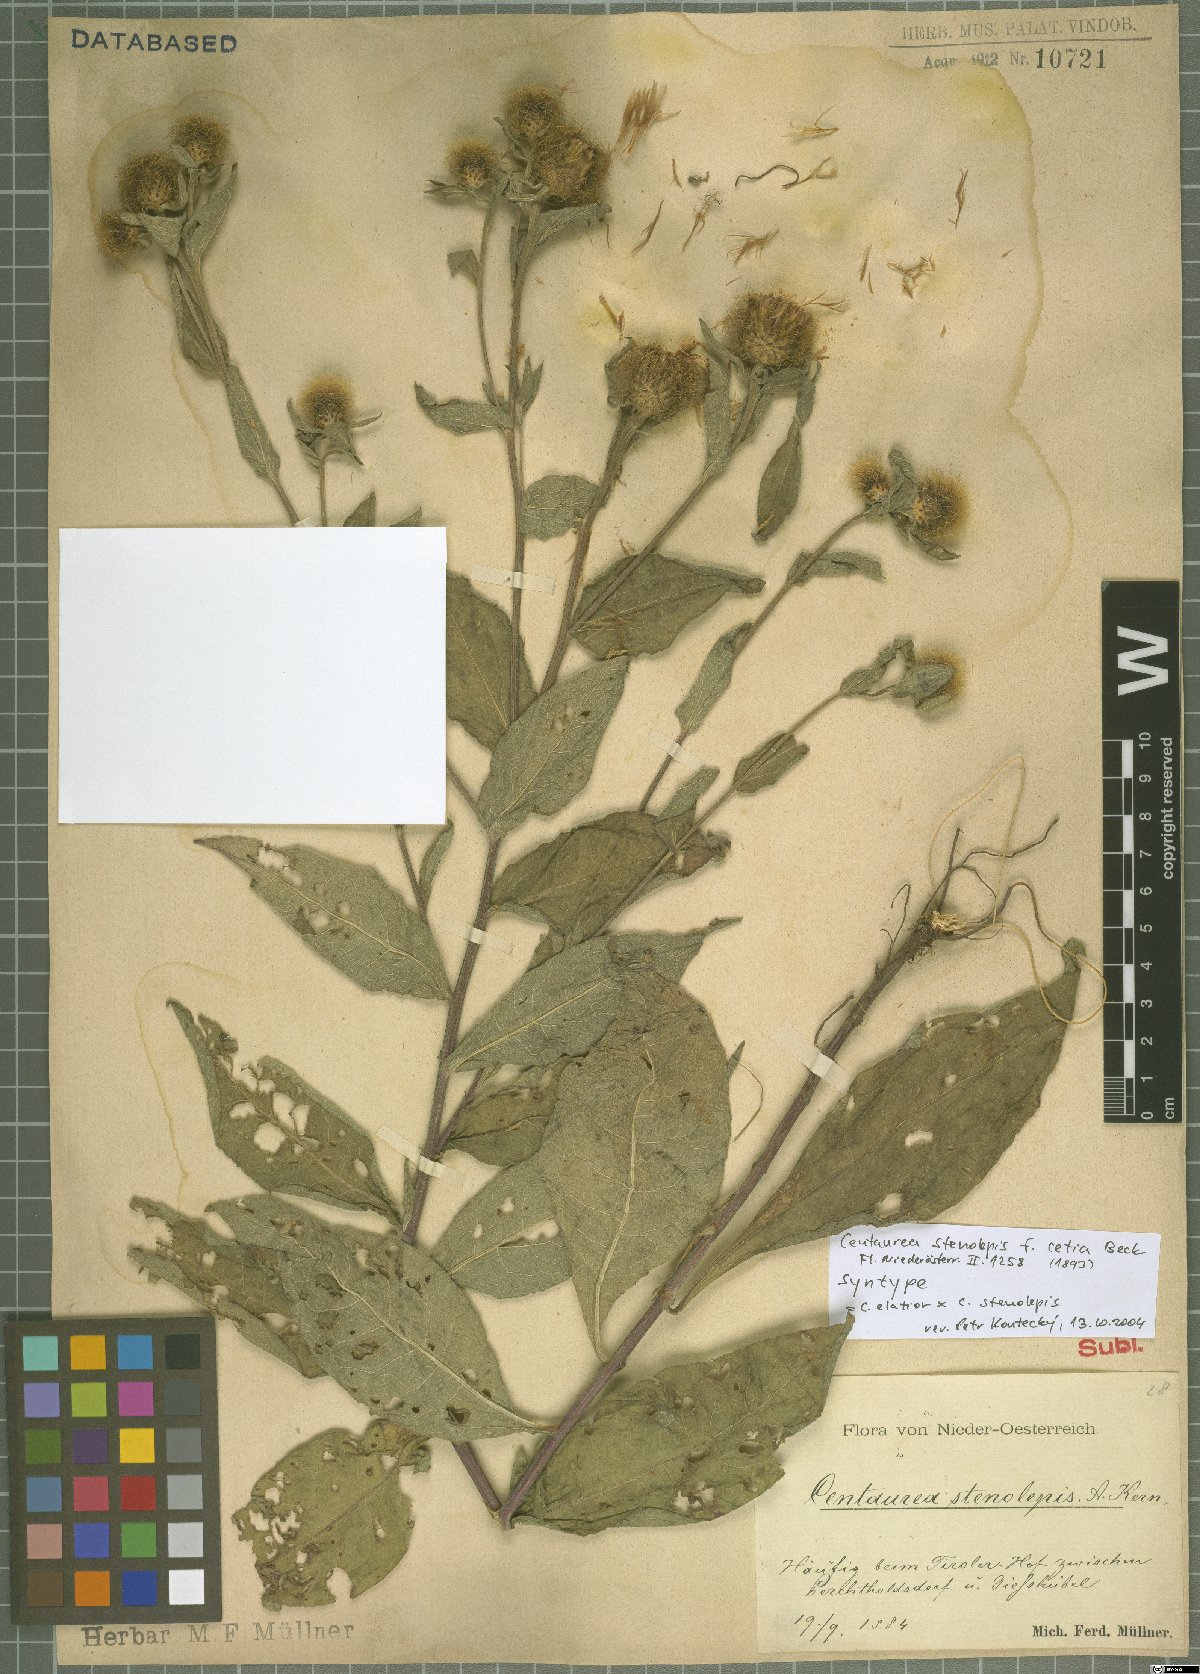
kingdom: Plantae
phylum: Tracheophyta
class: Magnoliopsida
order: Asterales
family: Asteraceae
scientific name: Asteraceae
